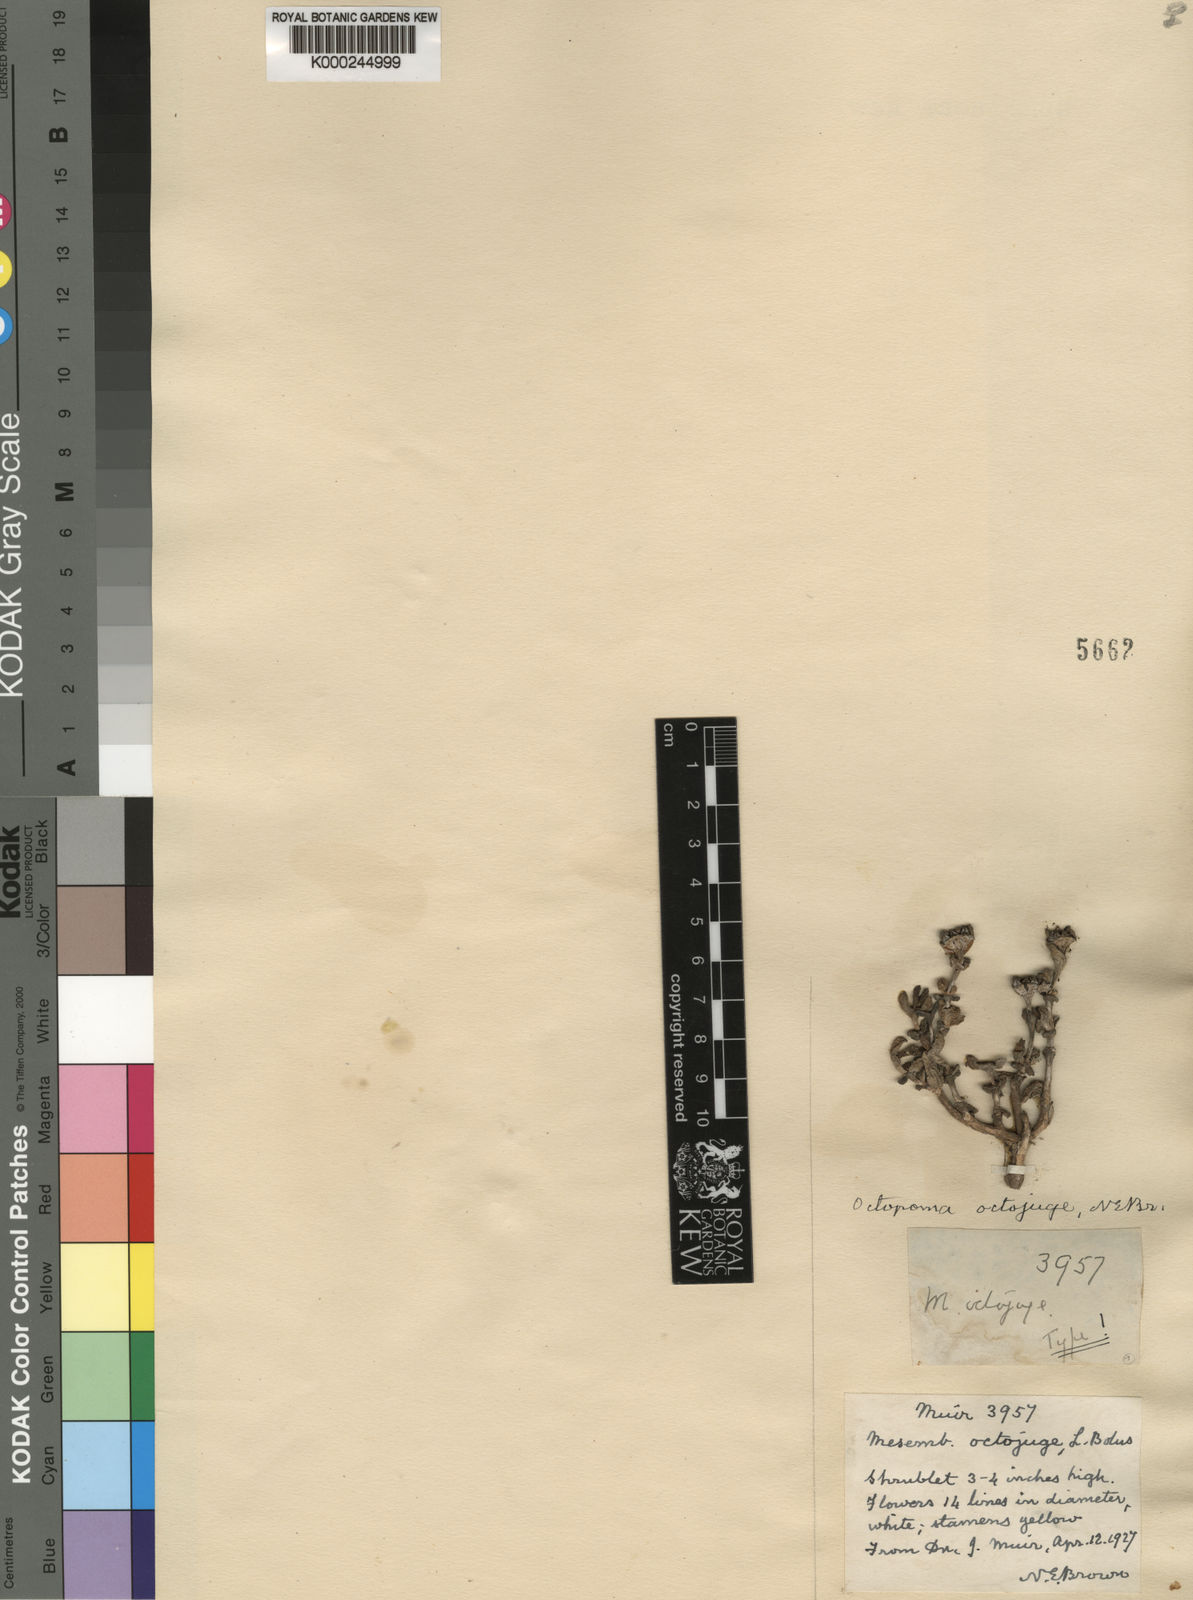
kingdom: Plantae
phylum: Tracheophyta
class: Magnoliopsida
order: Caryophyllales
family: Aizoaceae
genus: Octopoma
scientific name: Octopoma octojuge
